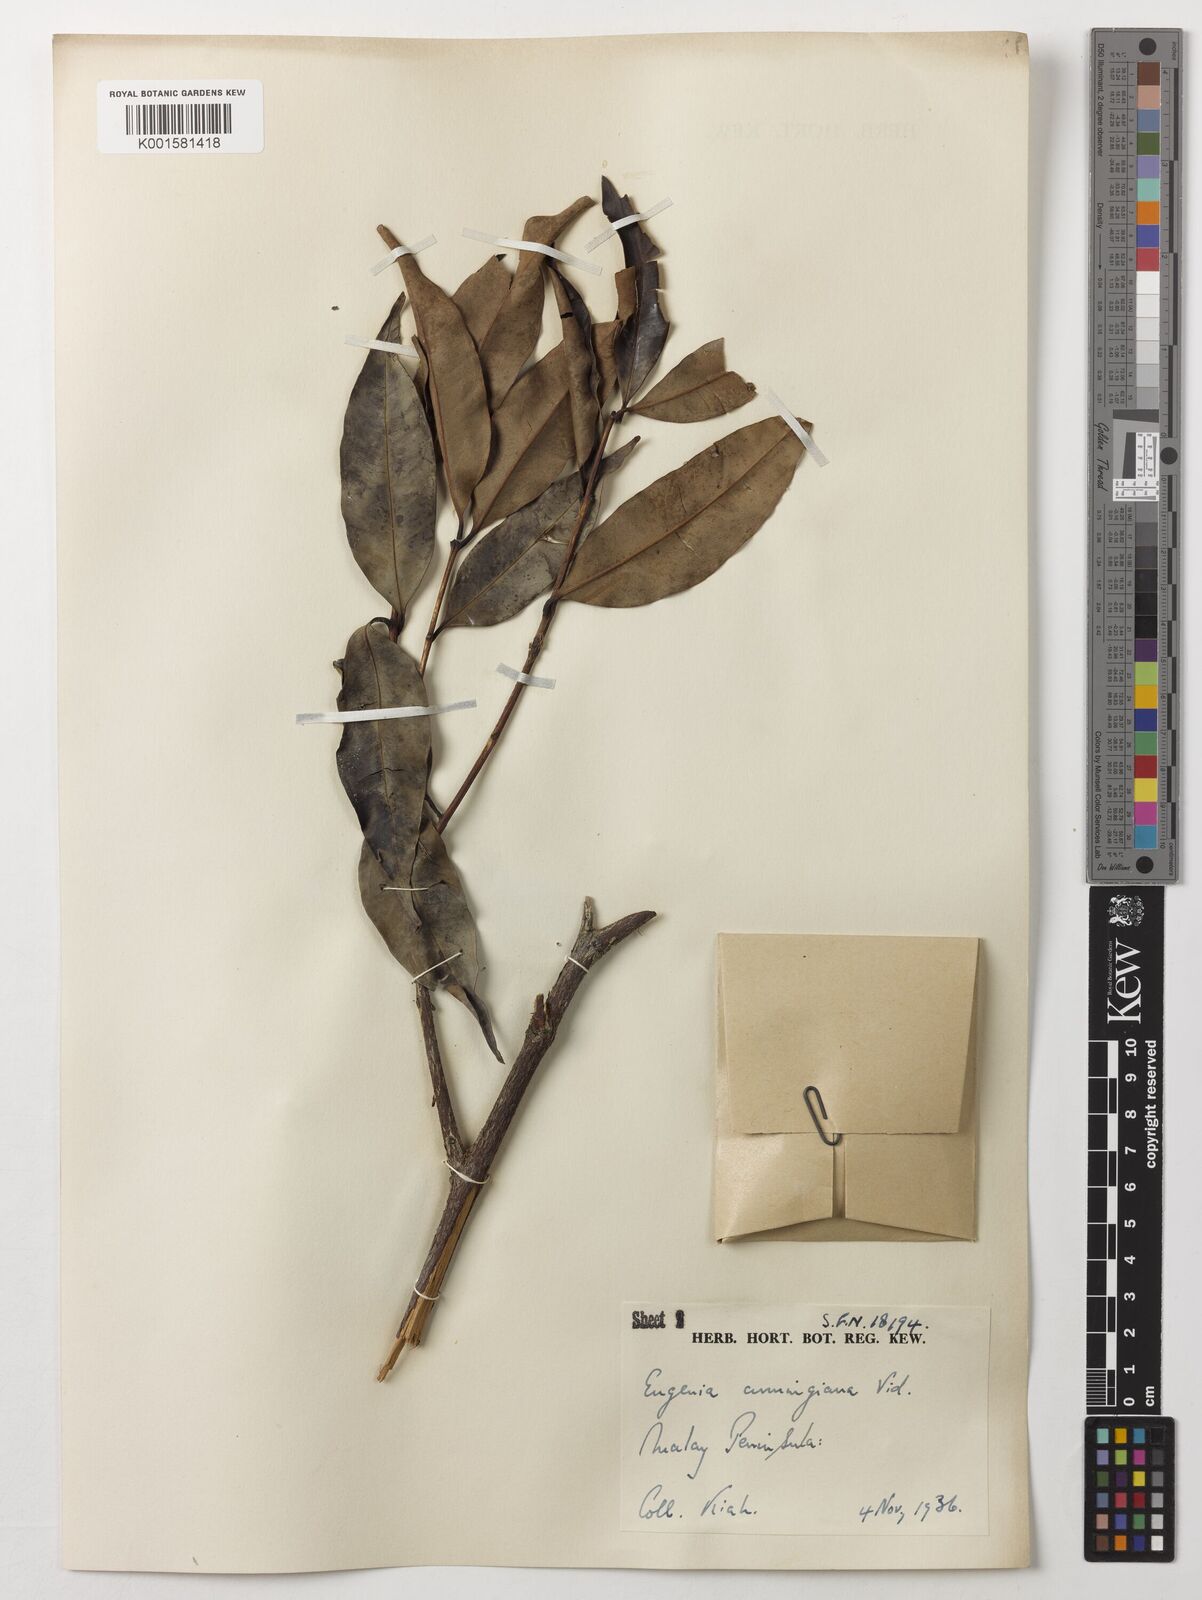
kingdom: Plantae
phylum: Tracheophyta
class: Magnoliopsida
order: Myrtales
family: Myrtaceae
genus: Syzygium
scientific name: Syzygium acuminatissimum
